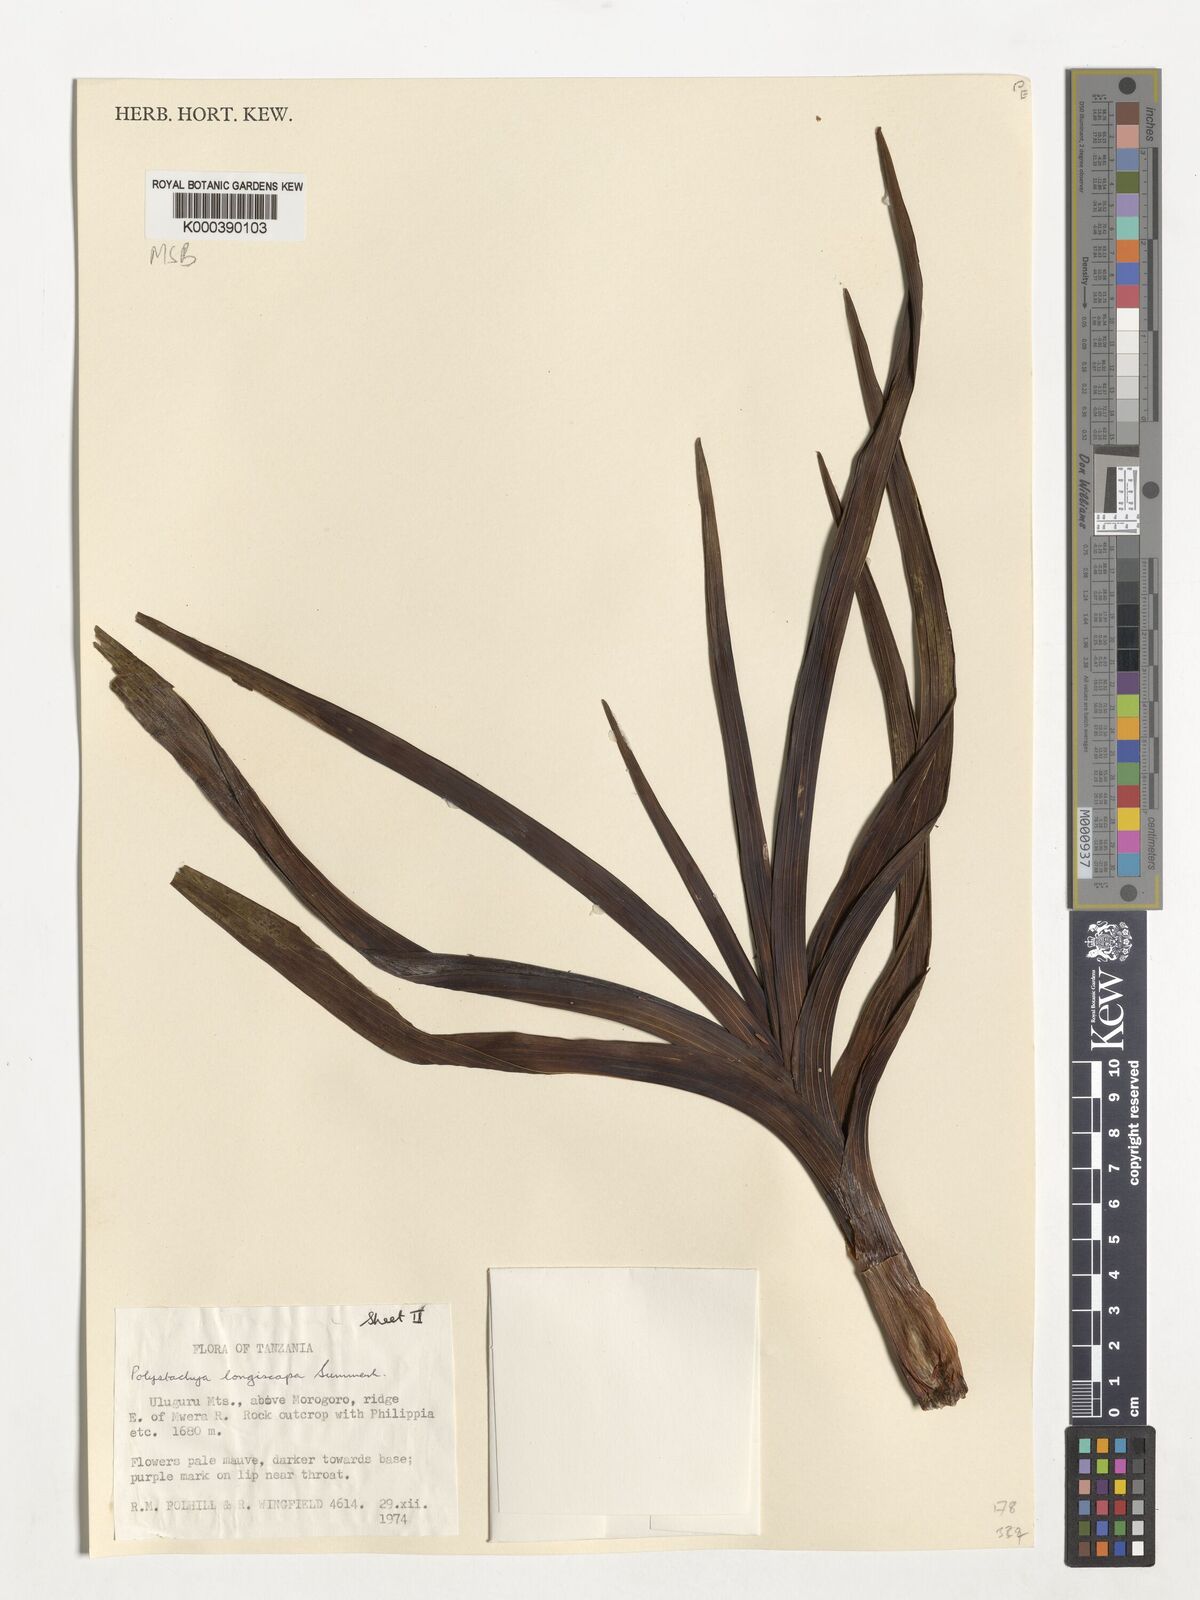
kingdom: Plantae
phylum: Tracheophyta
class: Liliopsida
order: Asparagales
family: Orchidaceae
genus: Polystachya
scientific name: Polystachya longiscapa
